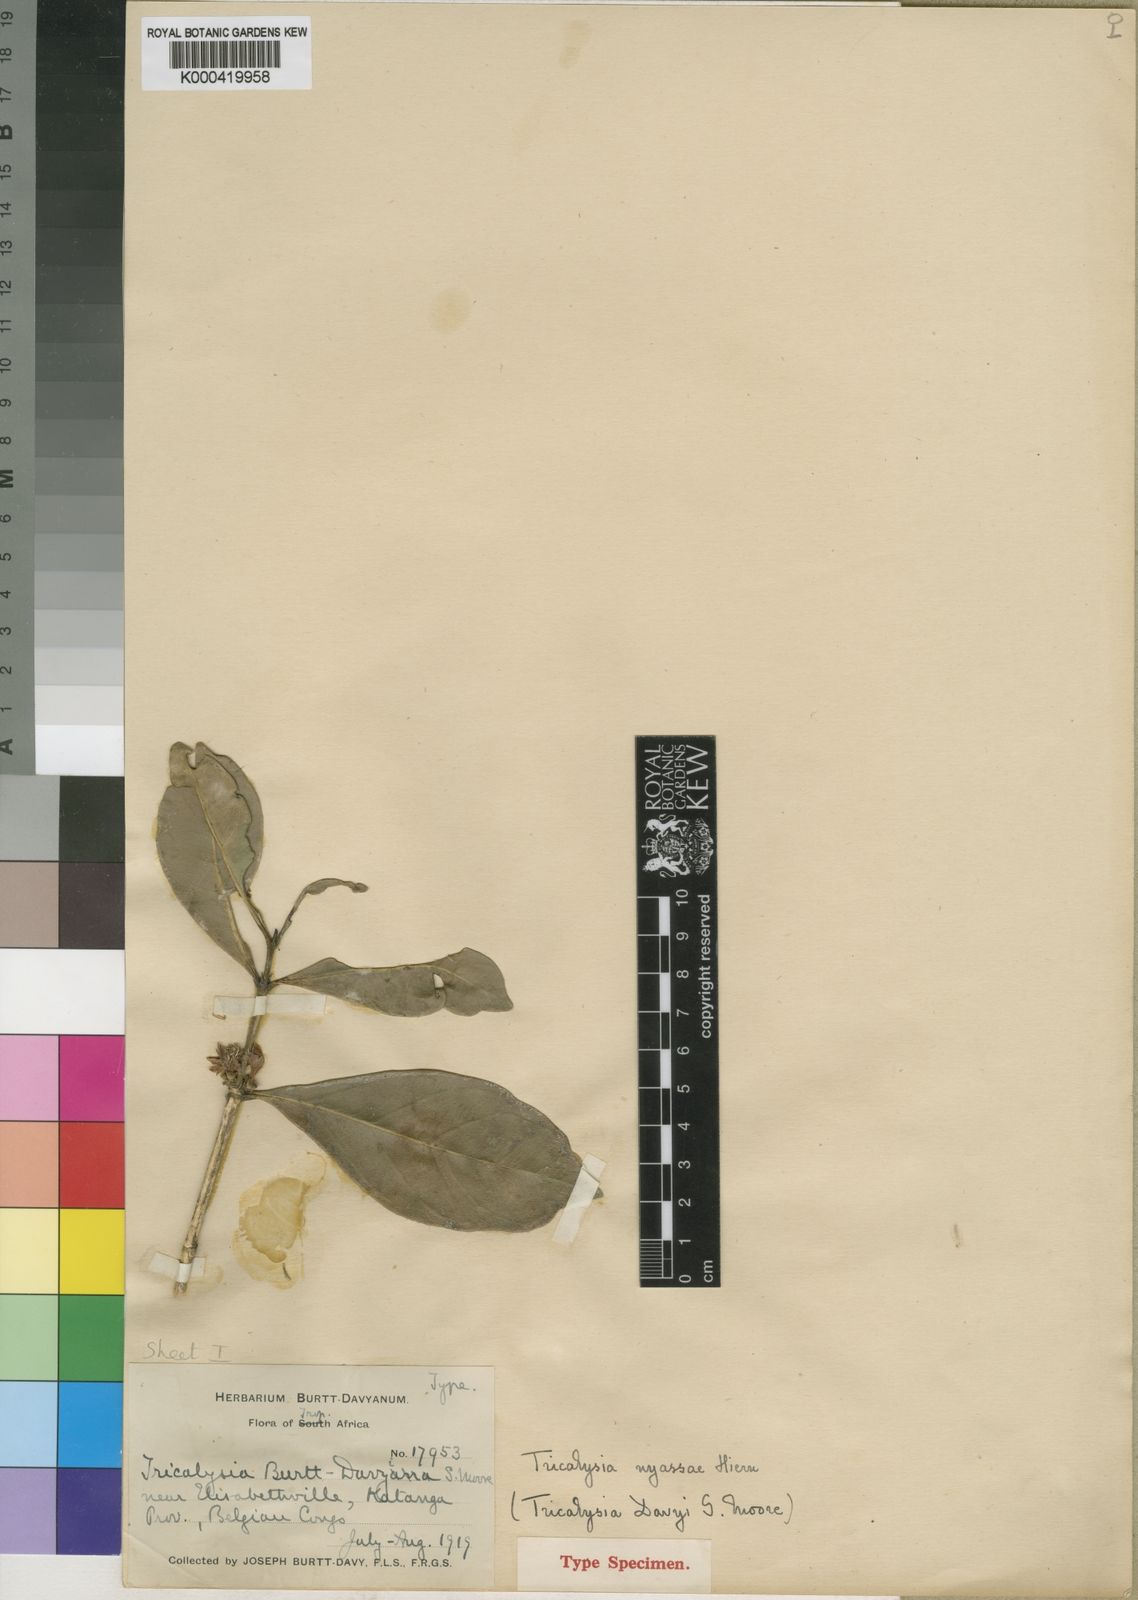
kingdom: Plantae
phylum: Tracheophyta
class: Magnoliopsida
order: Gentianales
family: Rubiaceae
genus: Tricalysia
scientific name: Tricalysia coriacea
